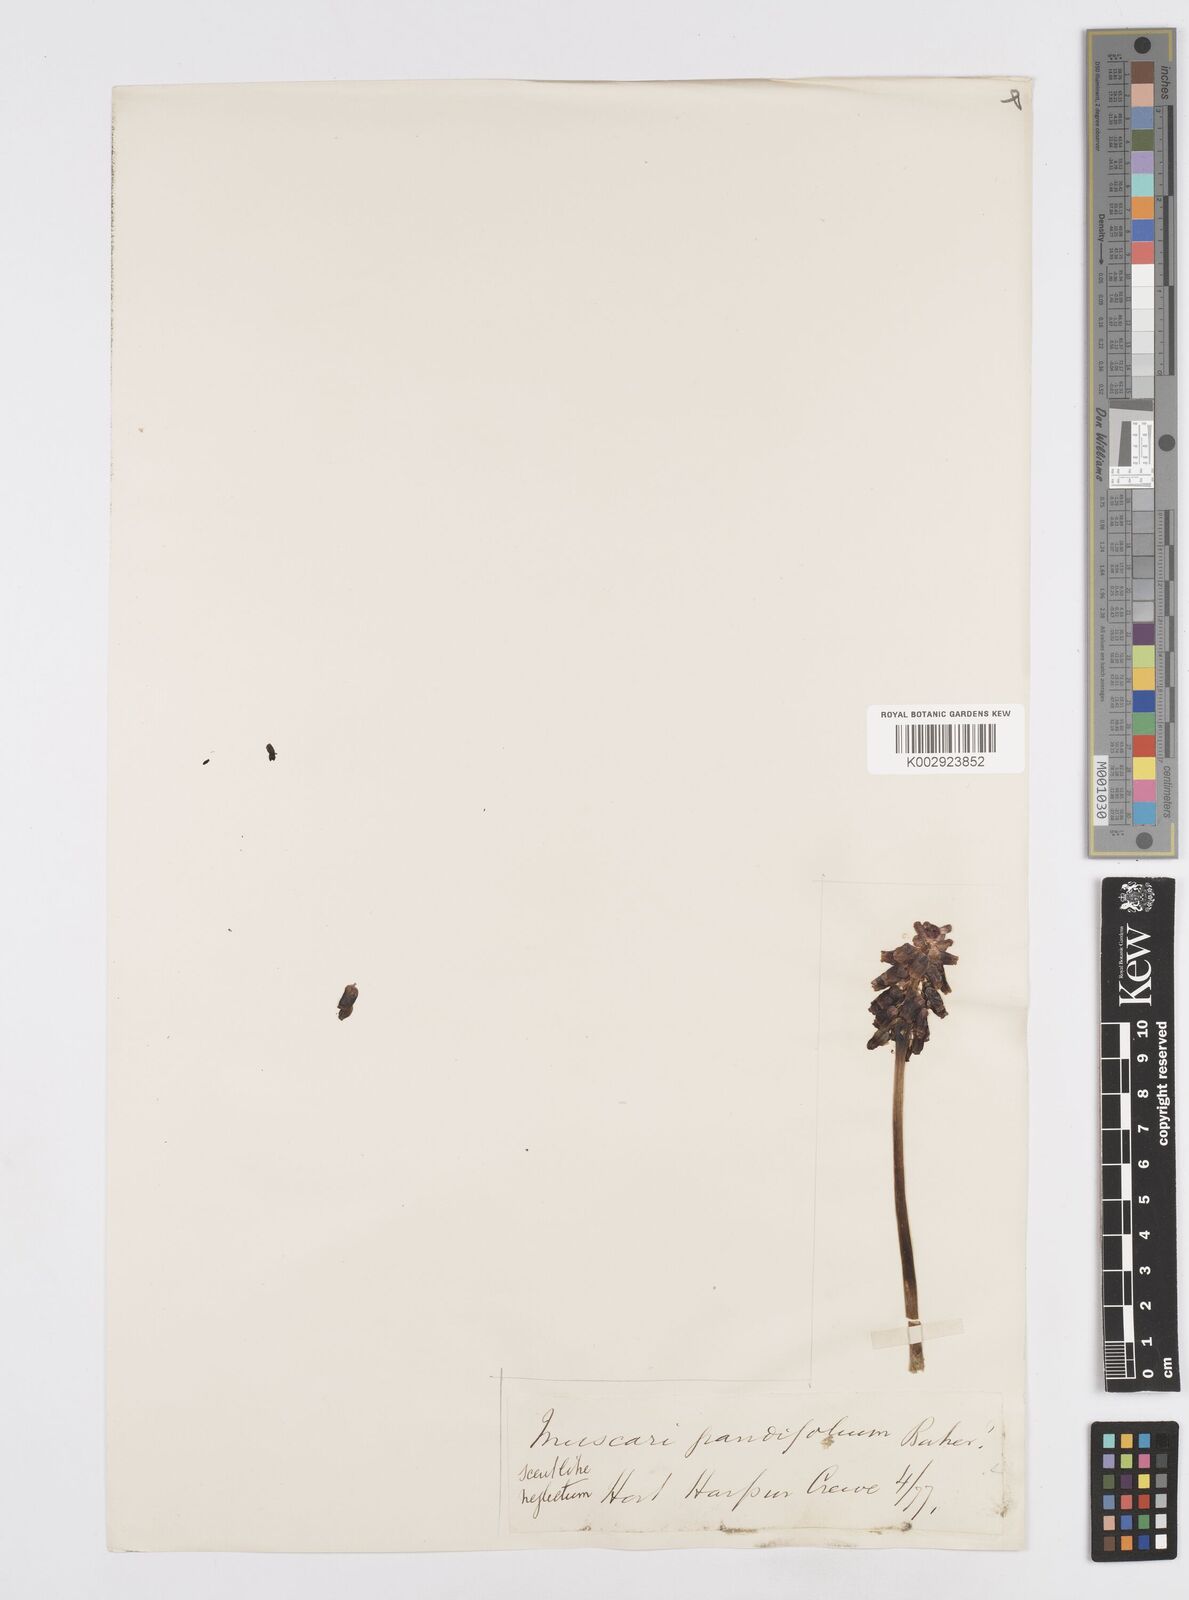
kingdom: Plantae
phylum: Tracheophyta
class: Liliopsida
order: Asparagales
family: Asparagaceae
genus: Muscari
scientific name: Muscari neglectum
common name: Grape-hyacinth
